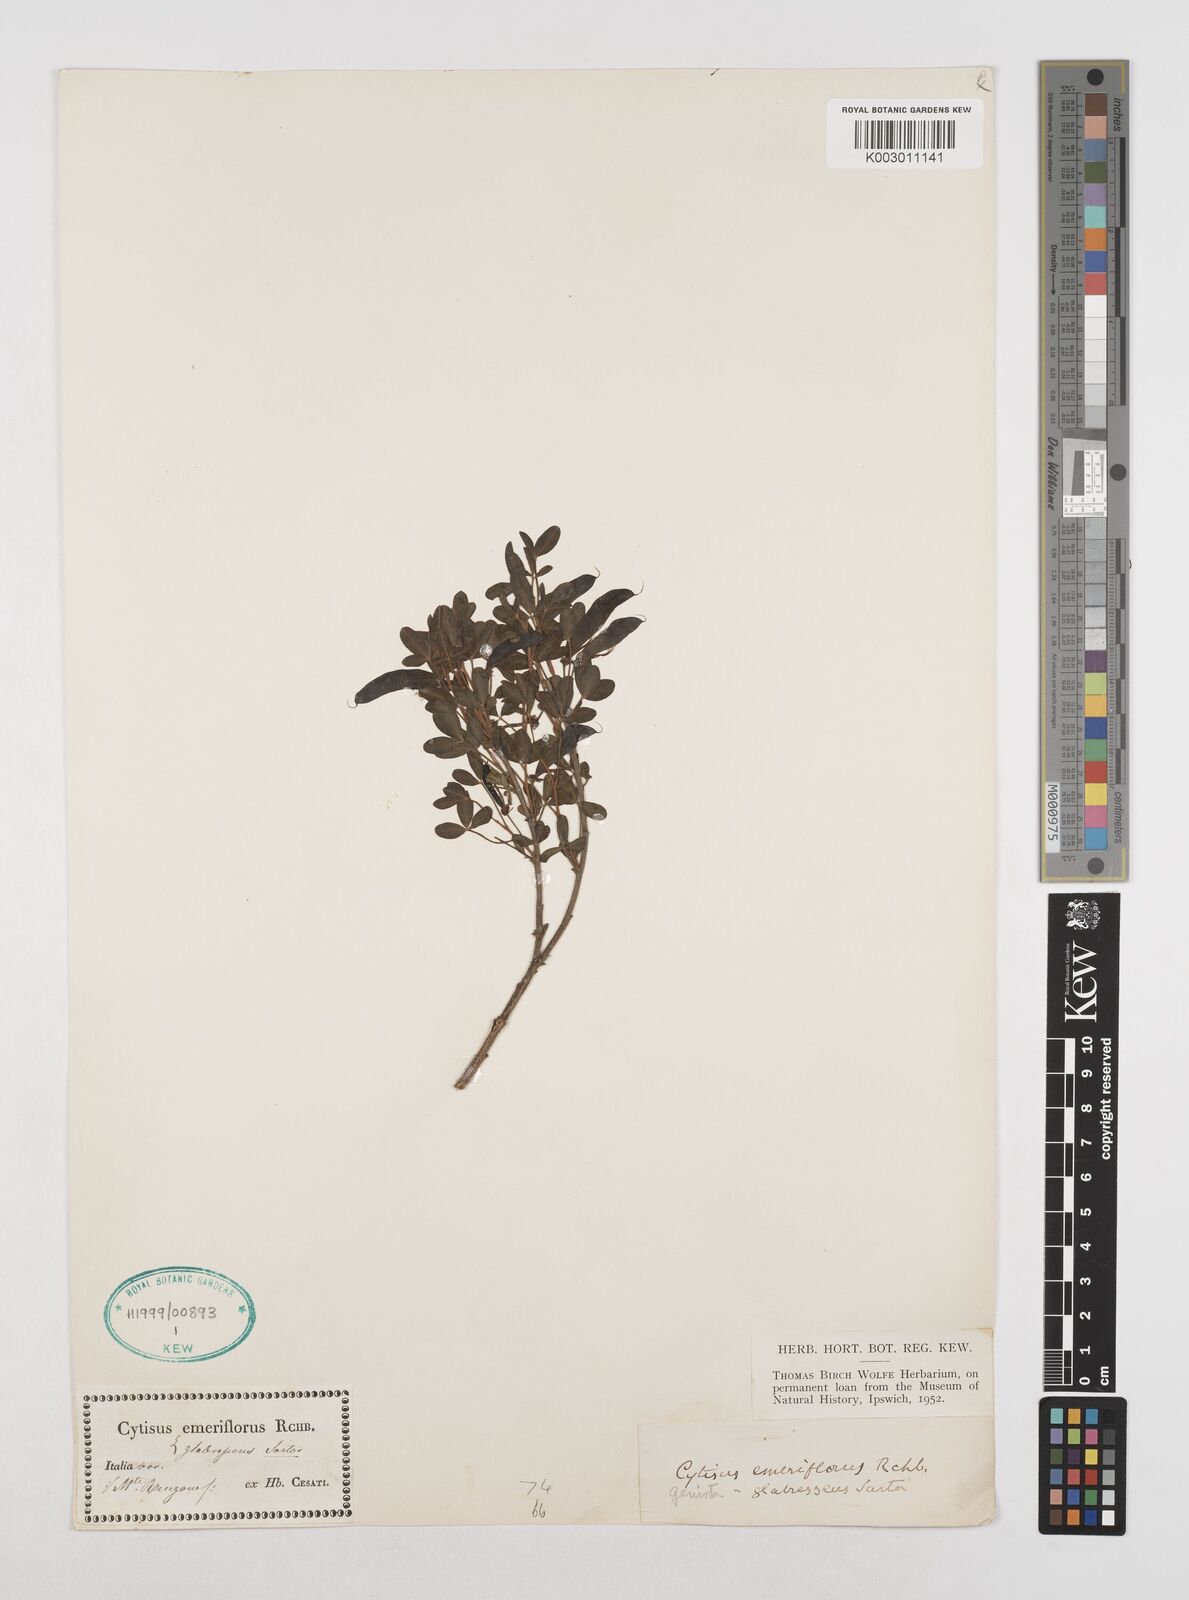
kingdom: Plantae
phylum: Tracheophyta
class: Magnoliopsida
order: Fabales
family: Fabaceae
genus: Cytisus
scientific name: Cytisus emeriflorus
